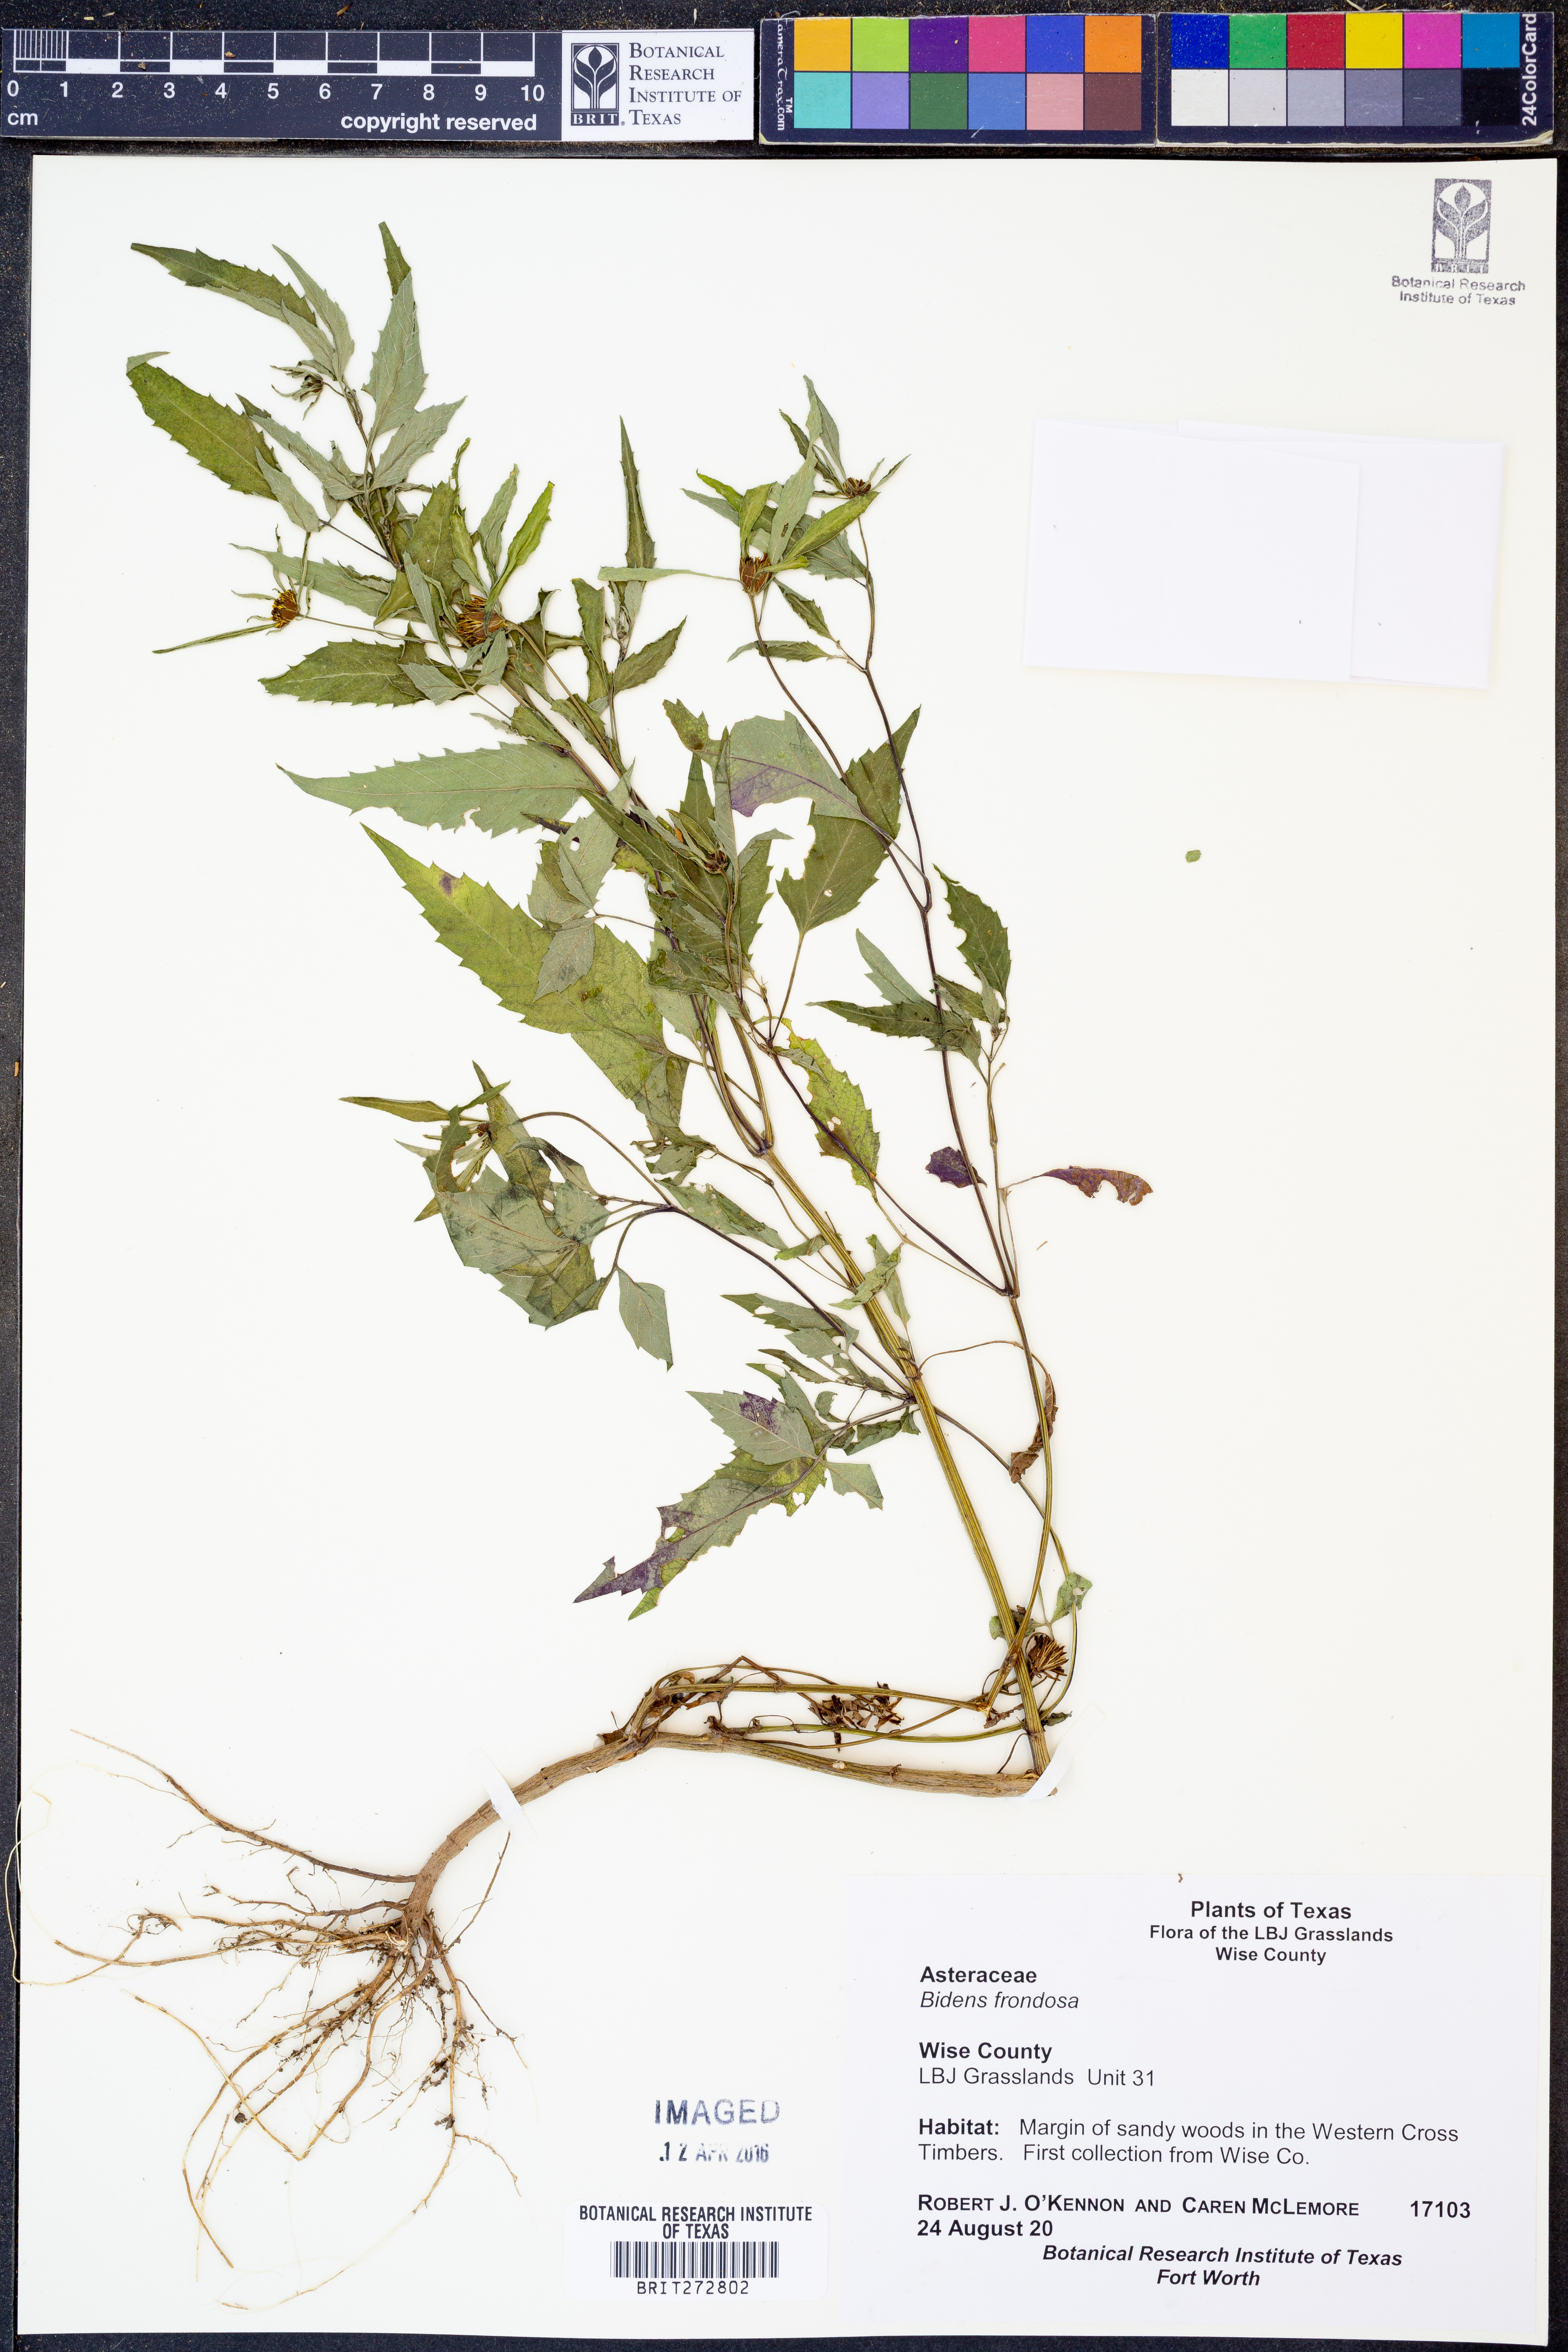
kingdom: Plantae
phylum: Tracheophyta
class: Magnoliopsida
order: Asterales
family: Asteraceae
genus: Bidens
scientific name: Bidens frondosa
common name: Beggarticks
